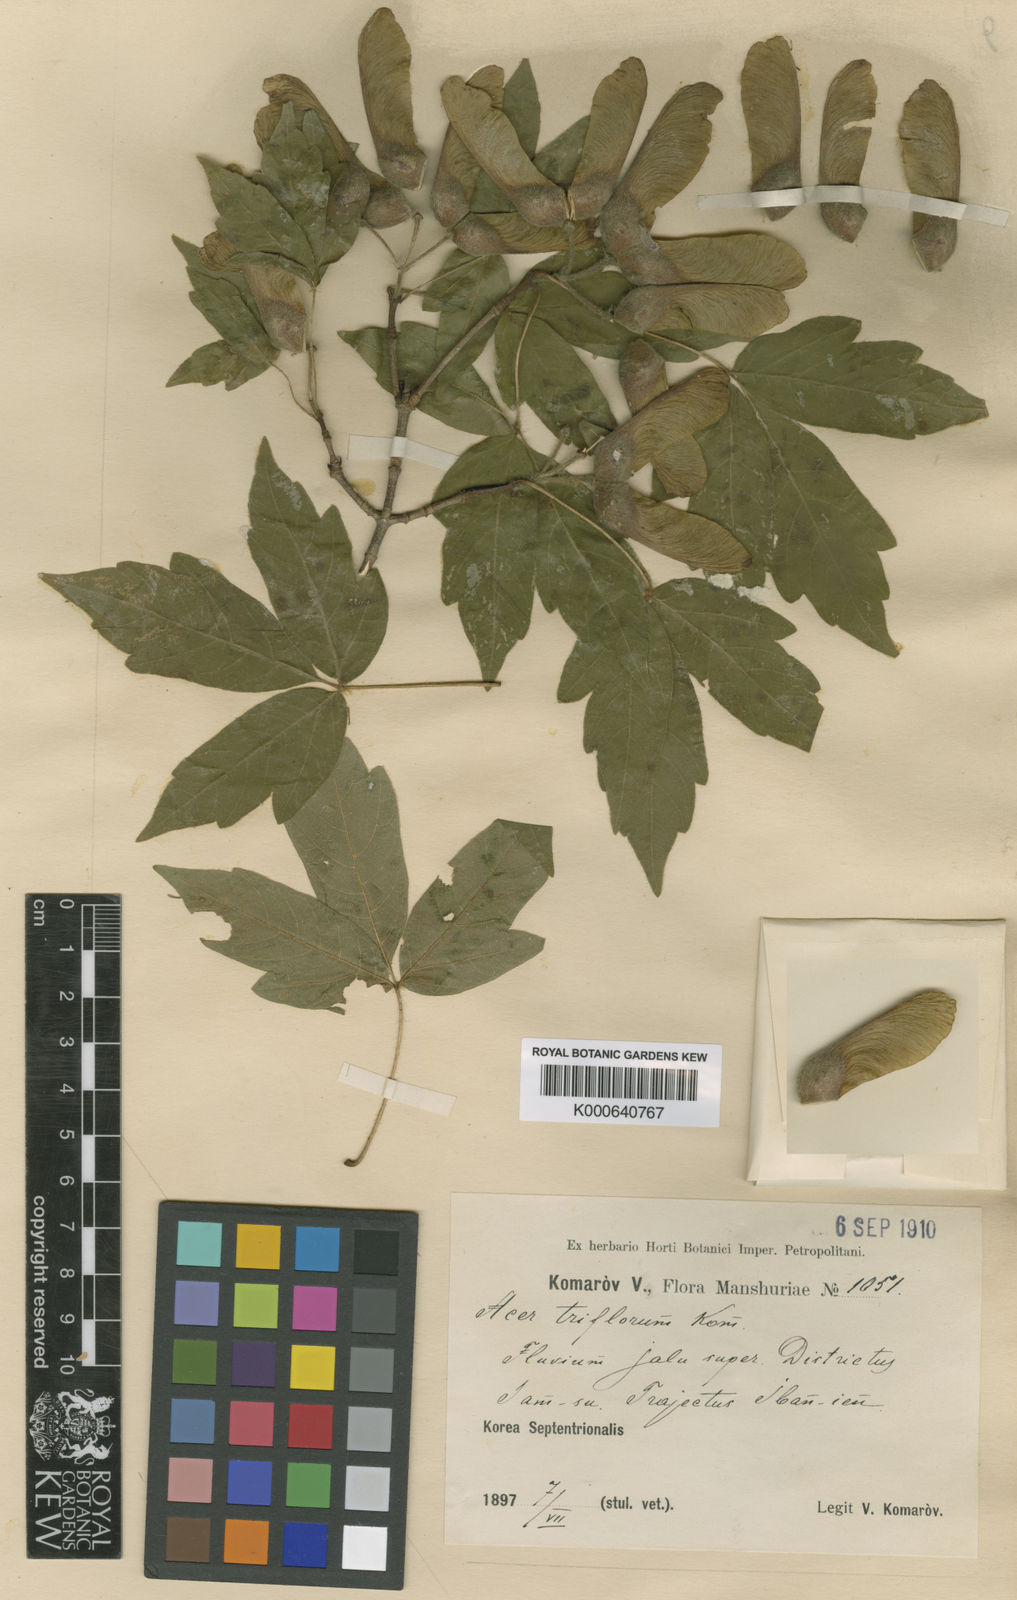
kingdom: Plantae
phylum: Tracheophyta
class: Magnoliopsida
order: Sapindales
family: Sapindaceae
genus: Acer
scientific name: Acer triflorum
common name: Three-flower maple
